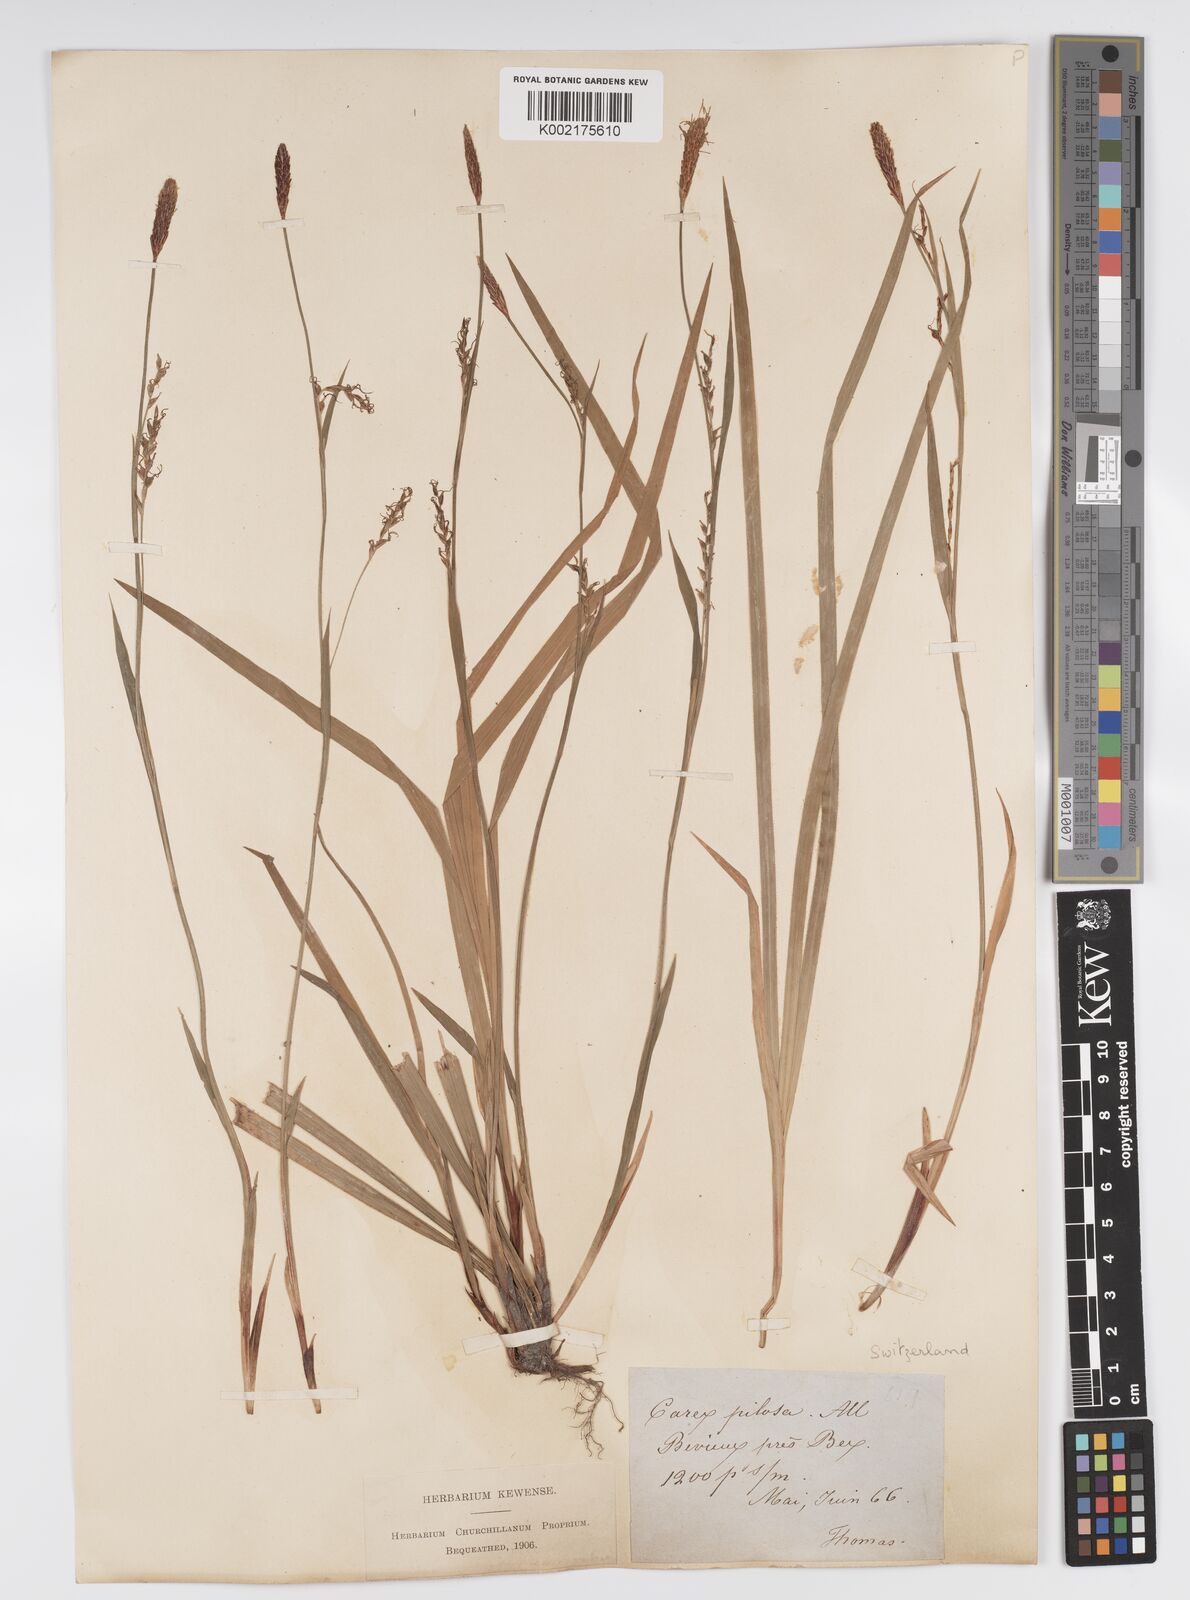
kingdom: Plantae
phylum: Tracheophyta
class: Liliopsida
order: Poales
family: Cyperaceae
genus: Carex
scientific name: Carex pilosa
